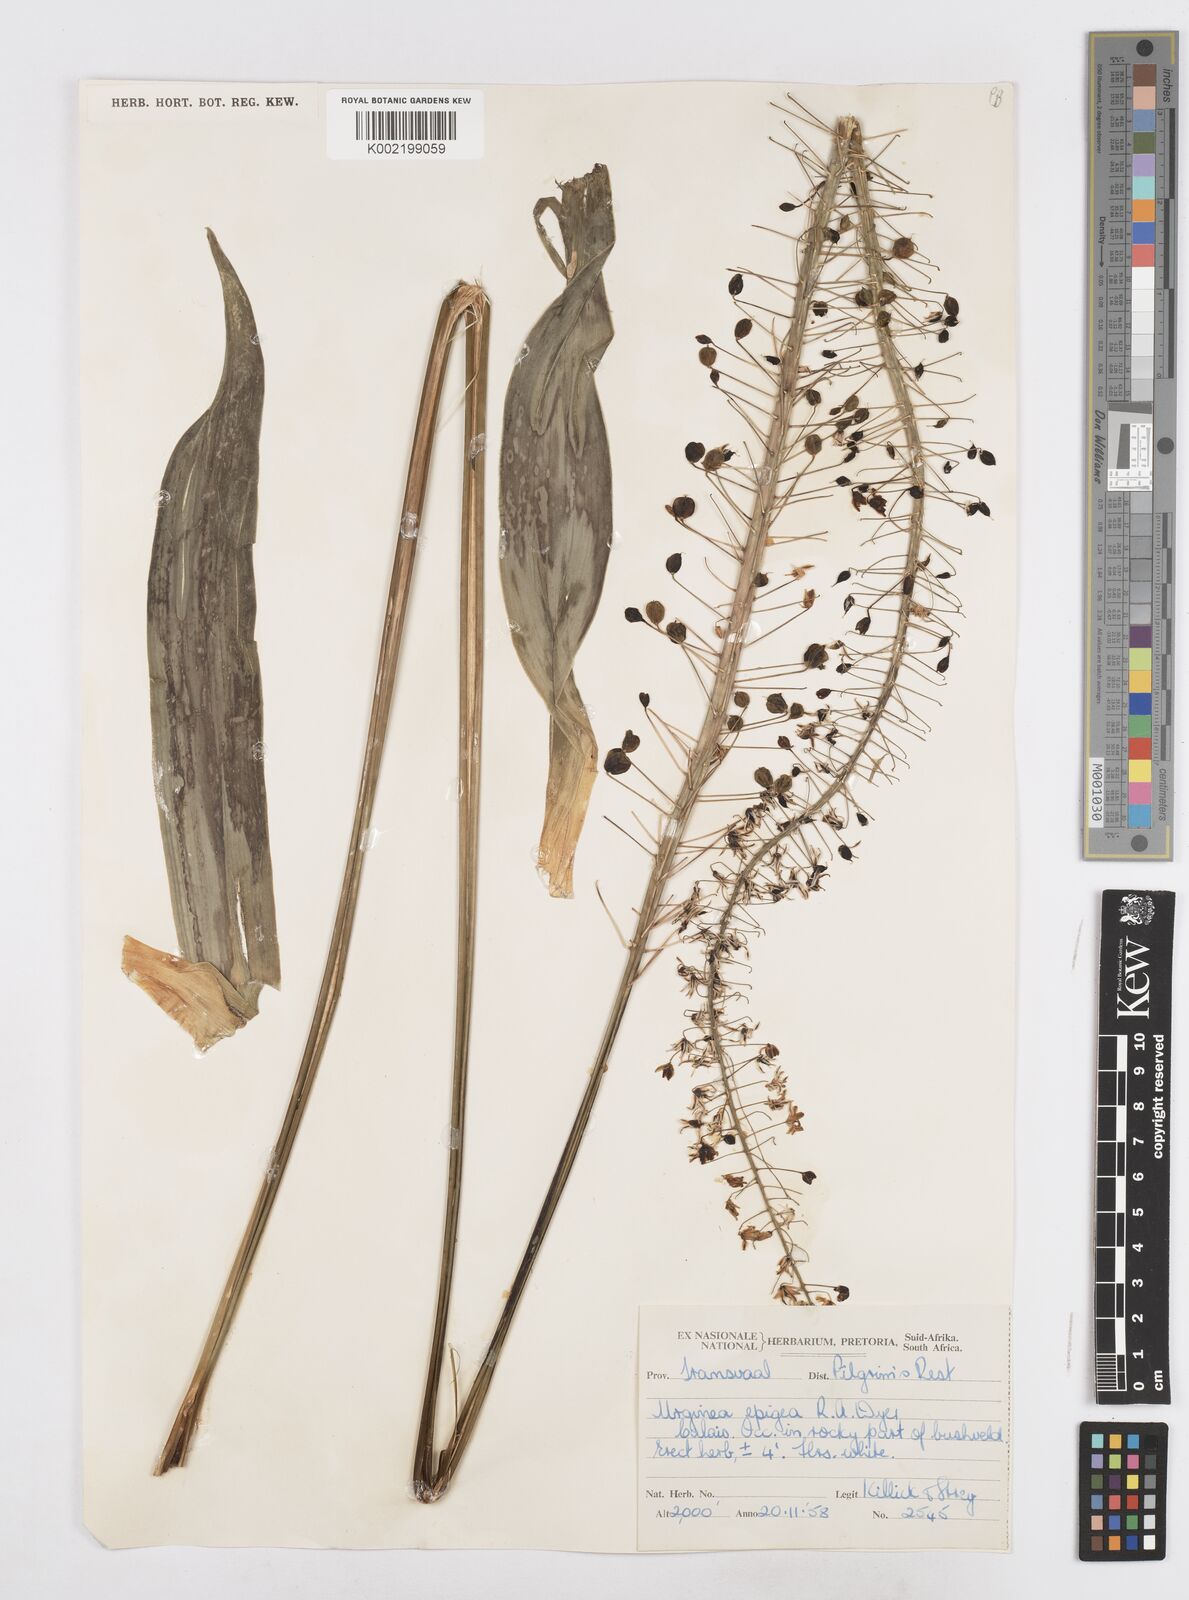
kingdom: Plantae
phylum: Tracheophyta
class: Liliopsida
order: Asparagales
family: Asparagaceae
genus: Drimia
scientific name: Drimia
